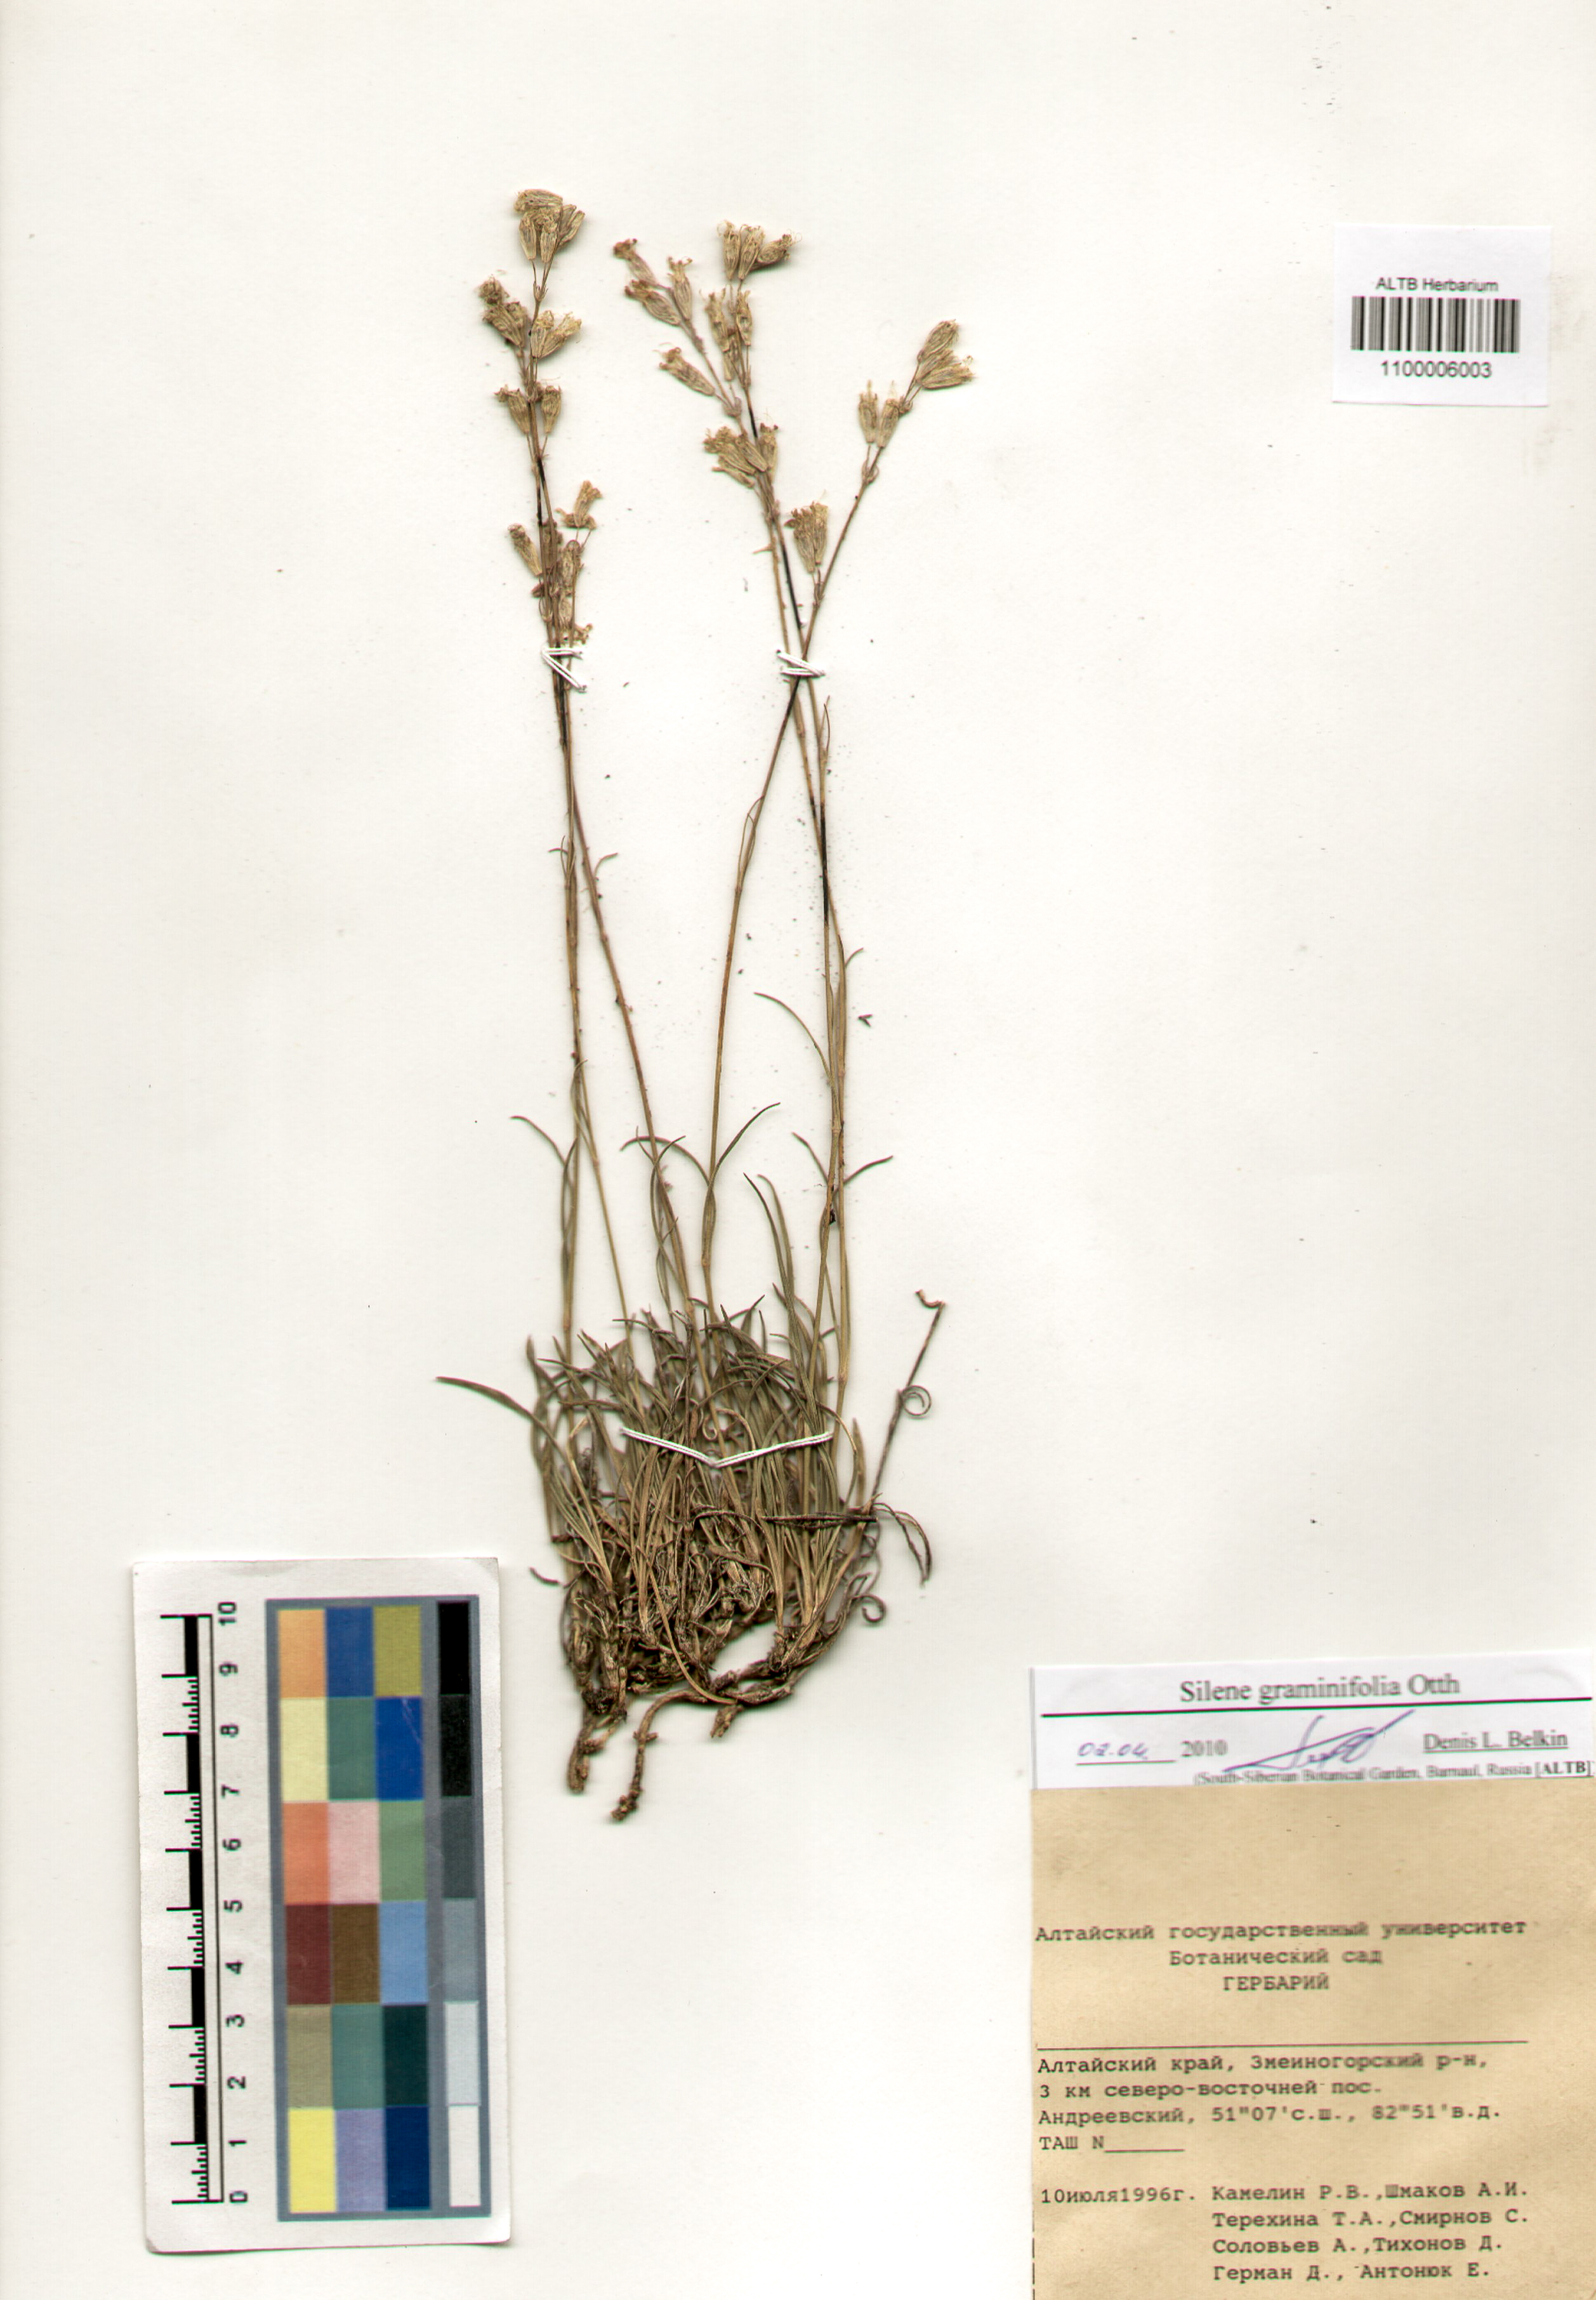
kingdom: Plantae
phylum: Tracheophyta
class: Magnoliopsida
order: Caryophyllales
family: Caryophyllaceae
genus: Silene
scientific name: Silene graminifolia
